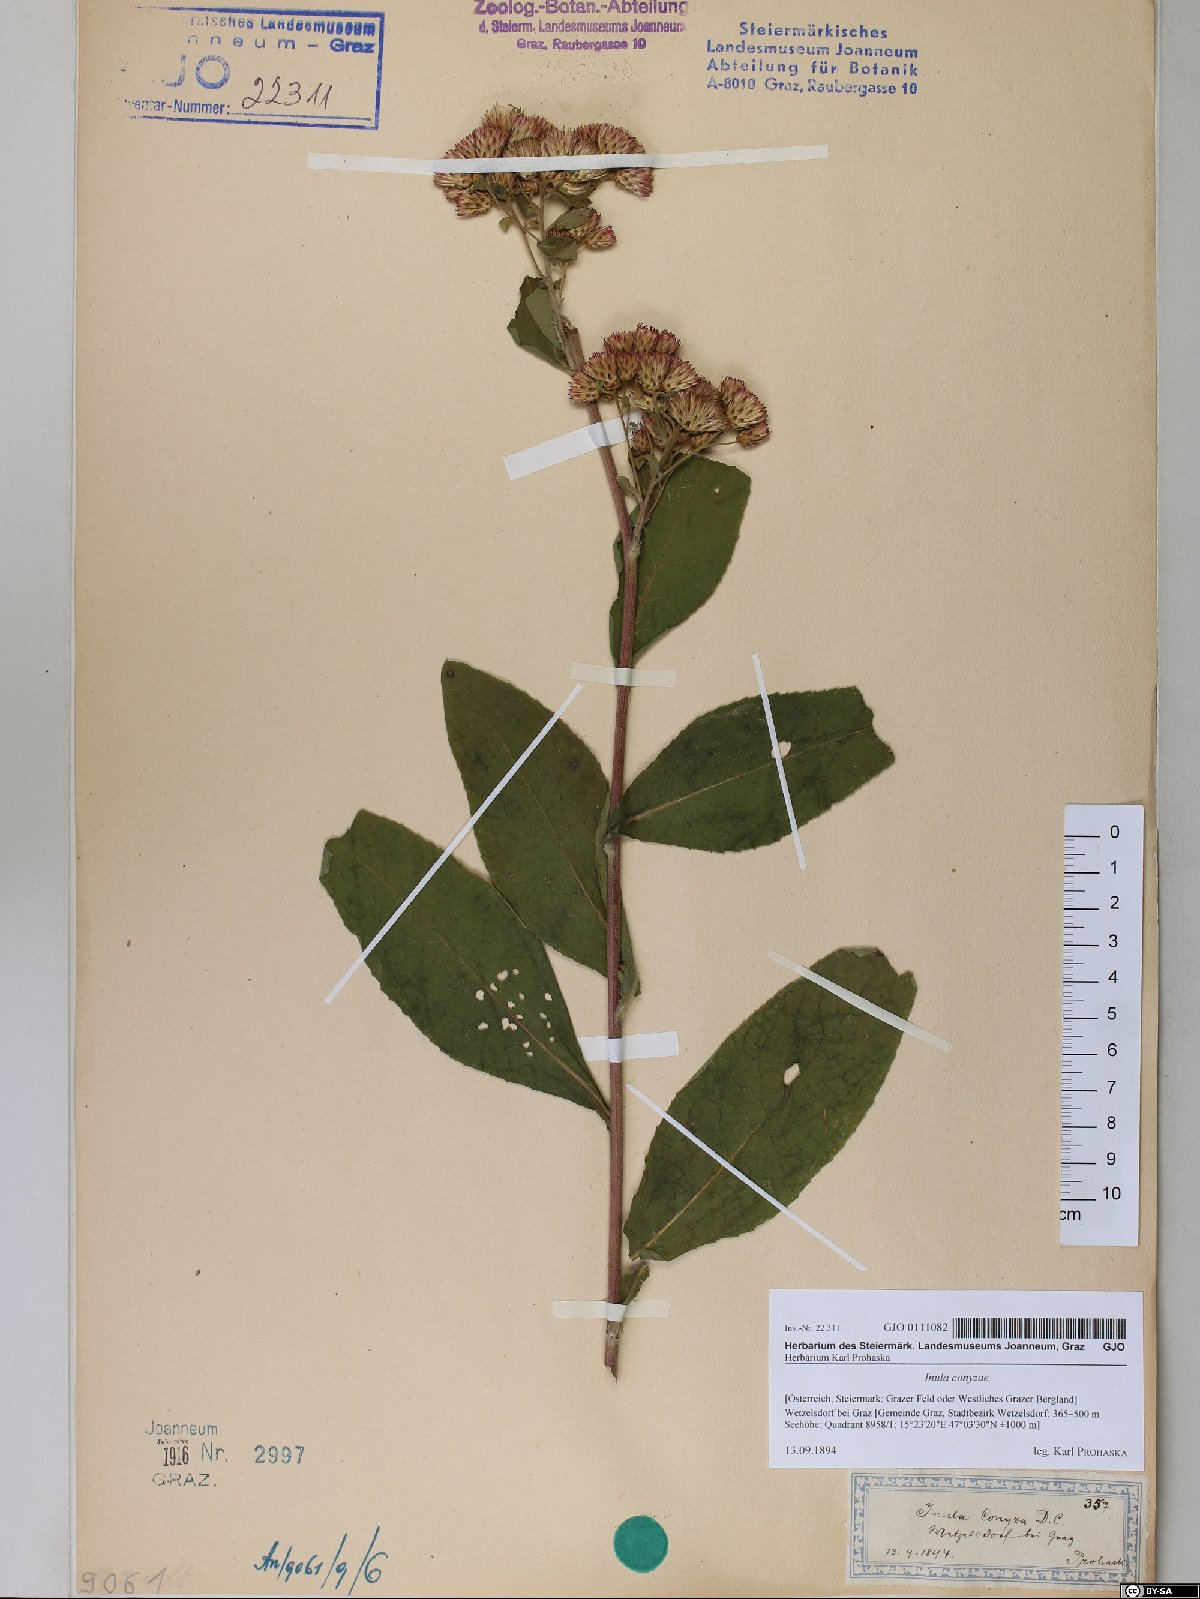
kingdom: Plantae
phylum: Tracheophyta
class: Magnoliopsida
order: Asterales
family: Asteraceae
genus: Pentanema
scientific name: Pentanema squarrosum
